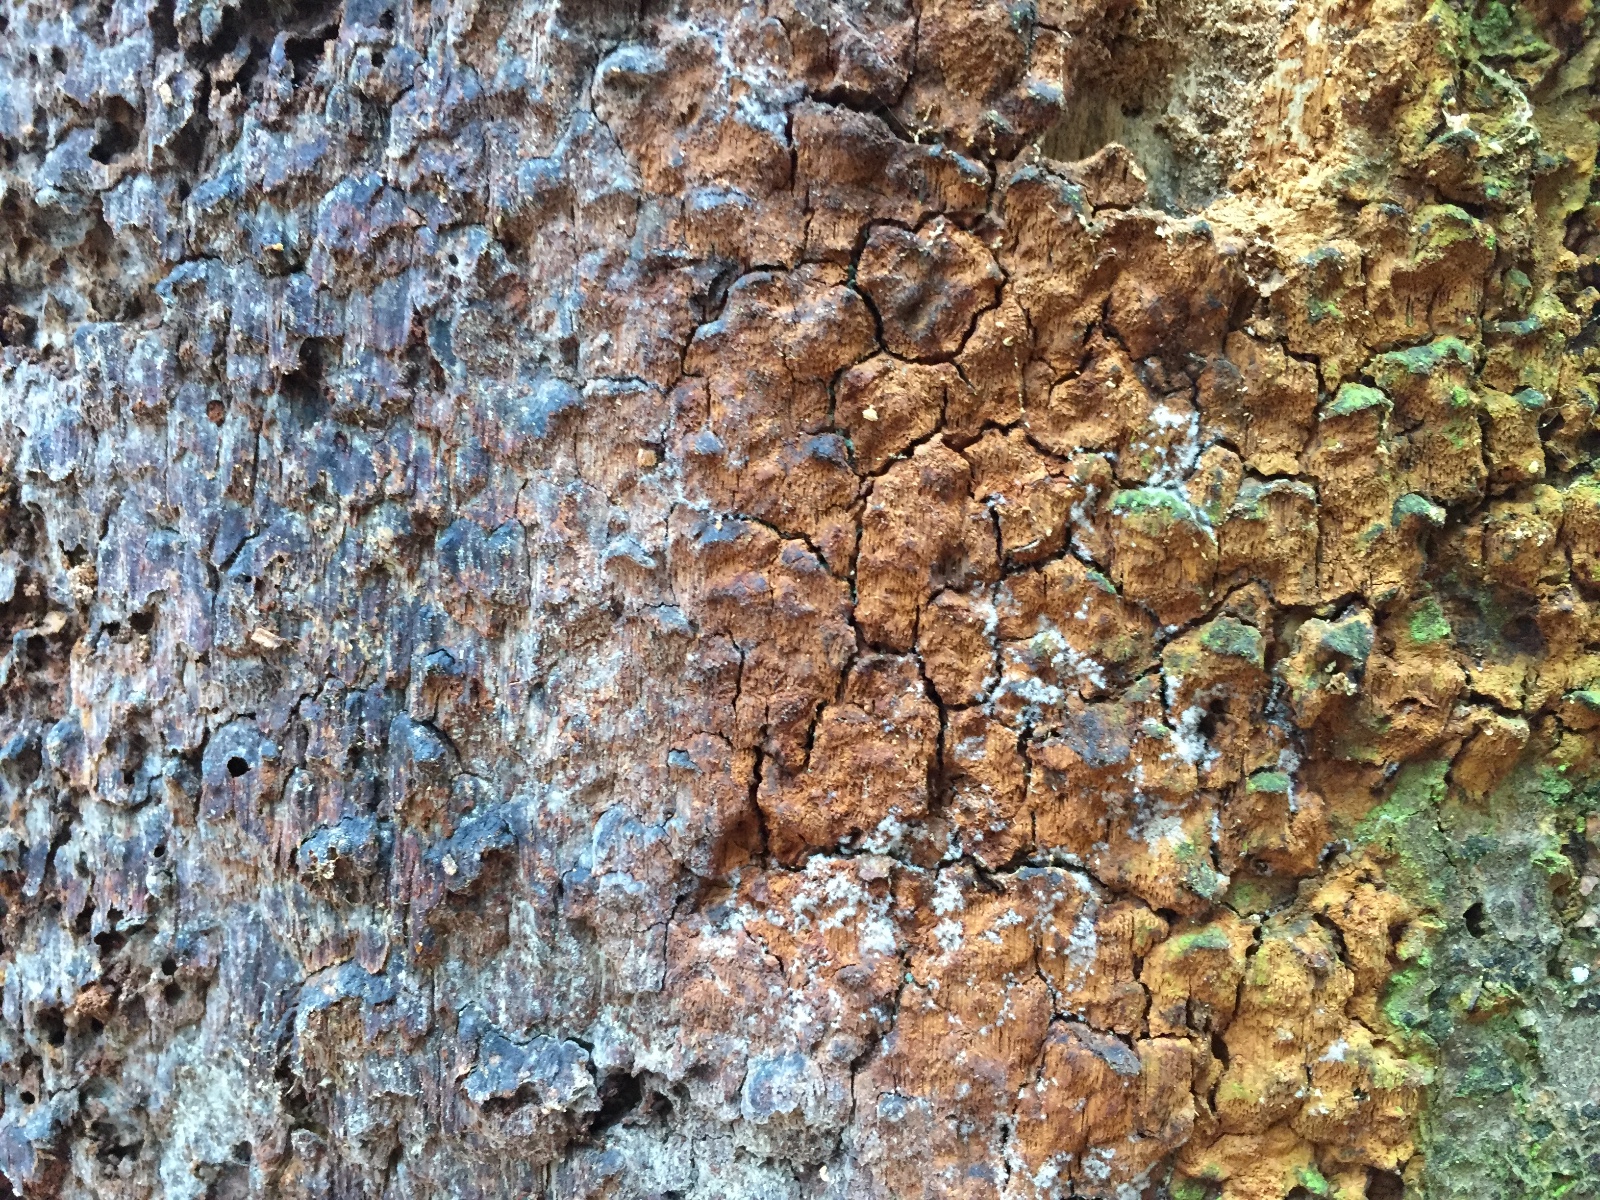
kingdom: Fungi
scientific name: Fungi
